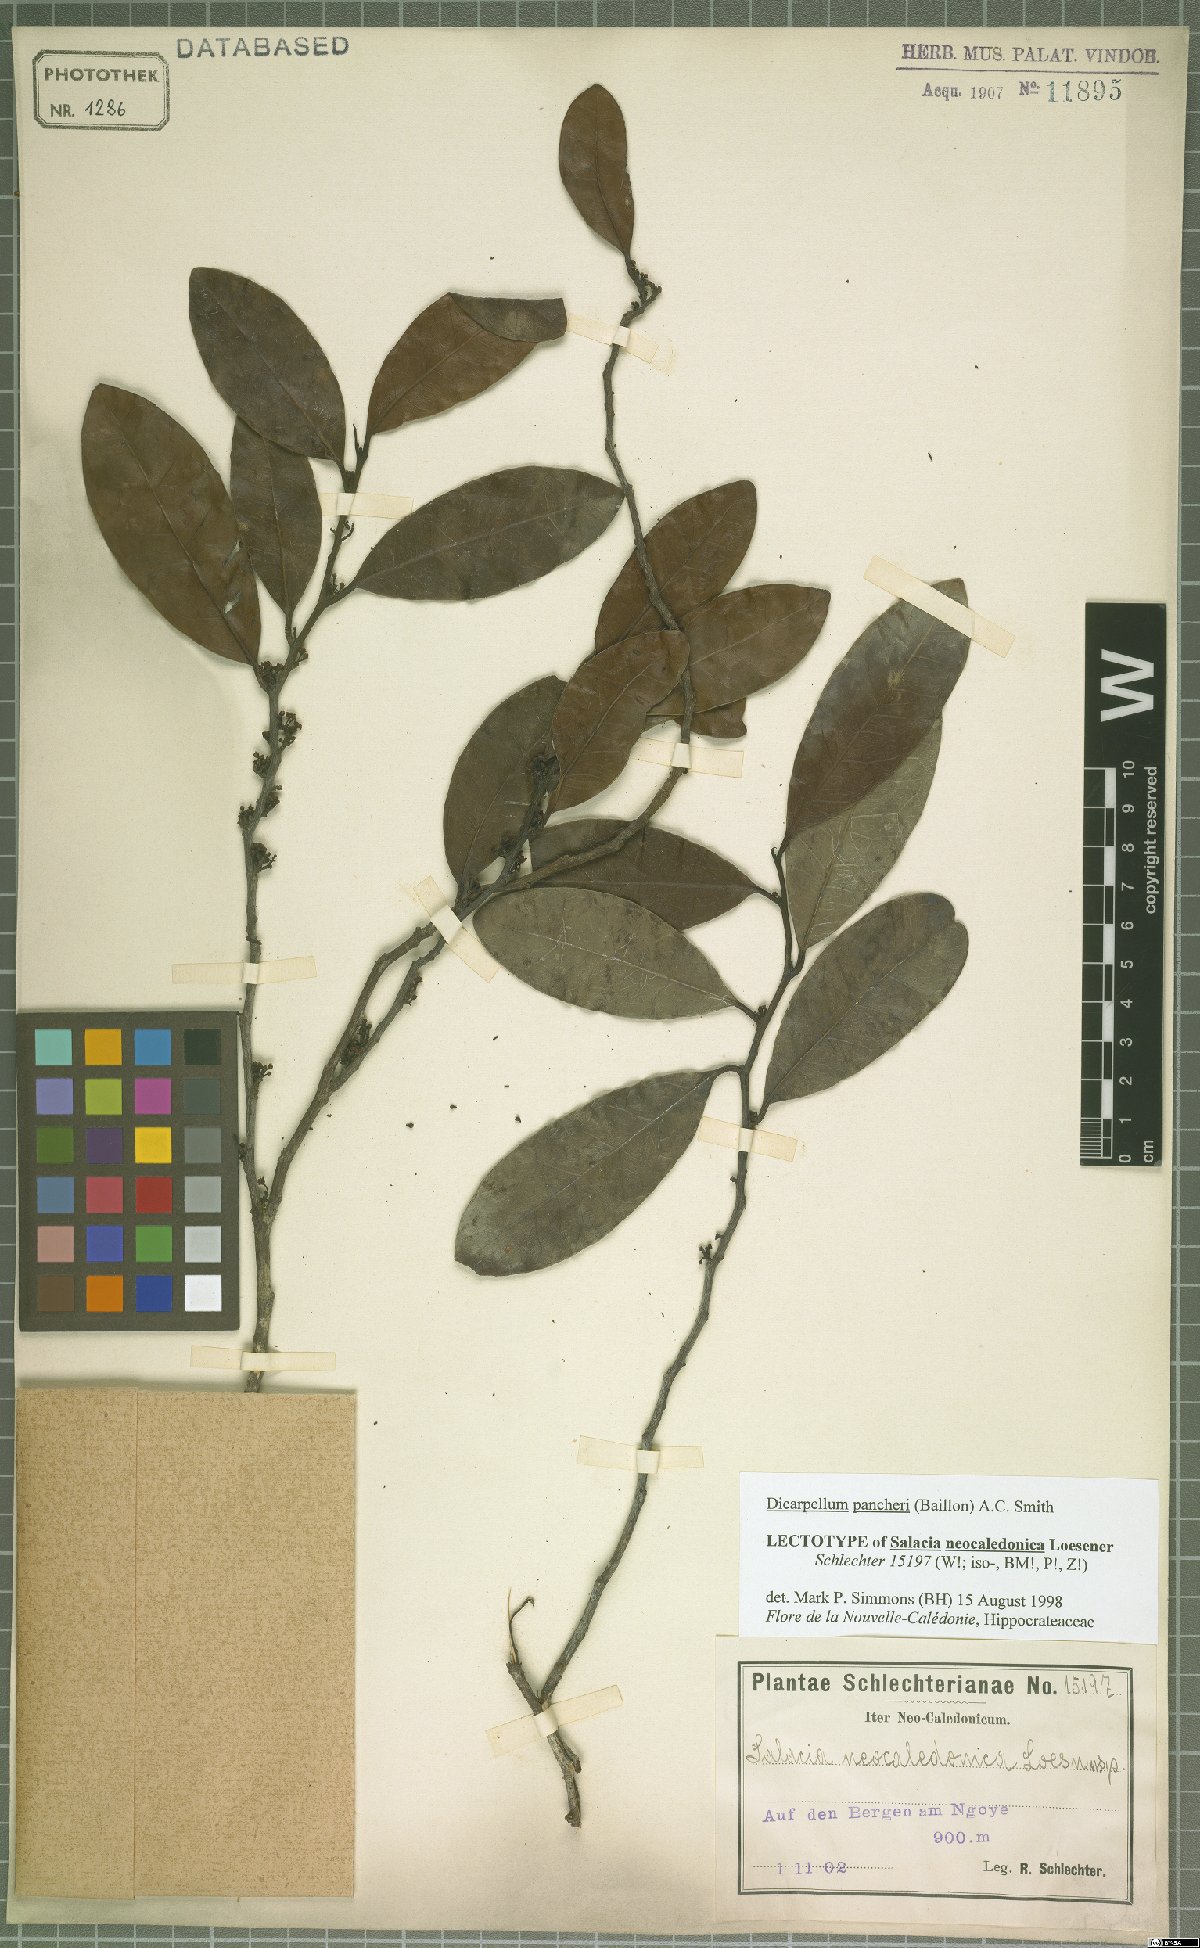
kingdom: Plantae
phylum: Tracheophyta
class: Magnoliopsida
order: Celastrales
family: Celastraceae
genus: Dicarpellum
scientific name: Dicarpellum pancheri
